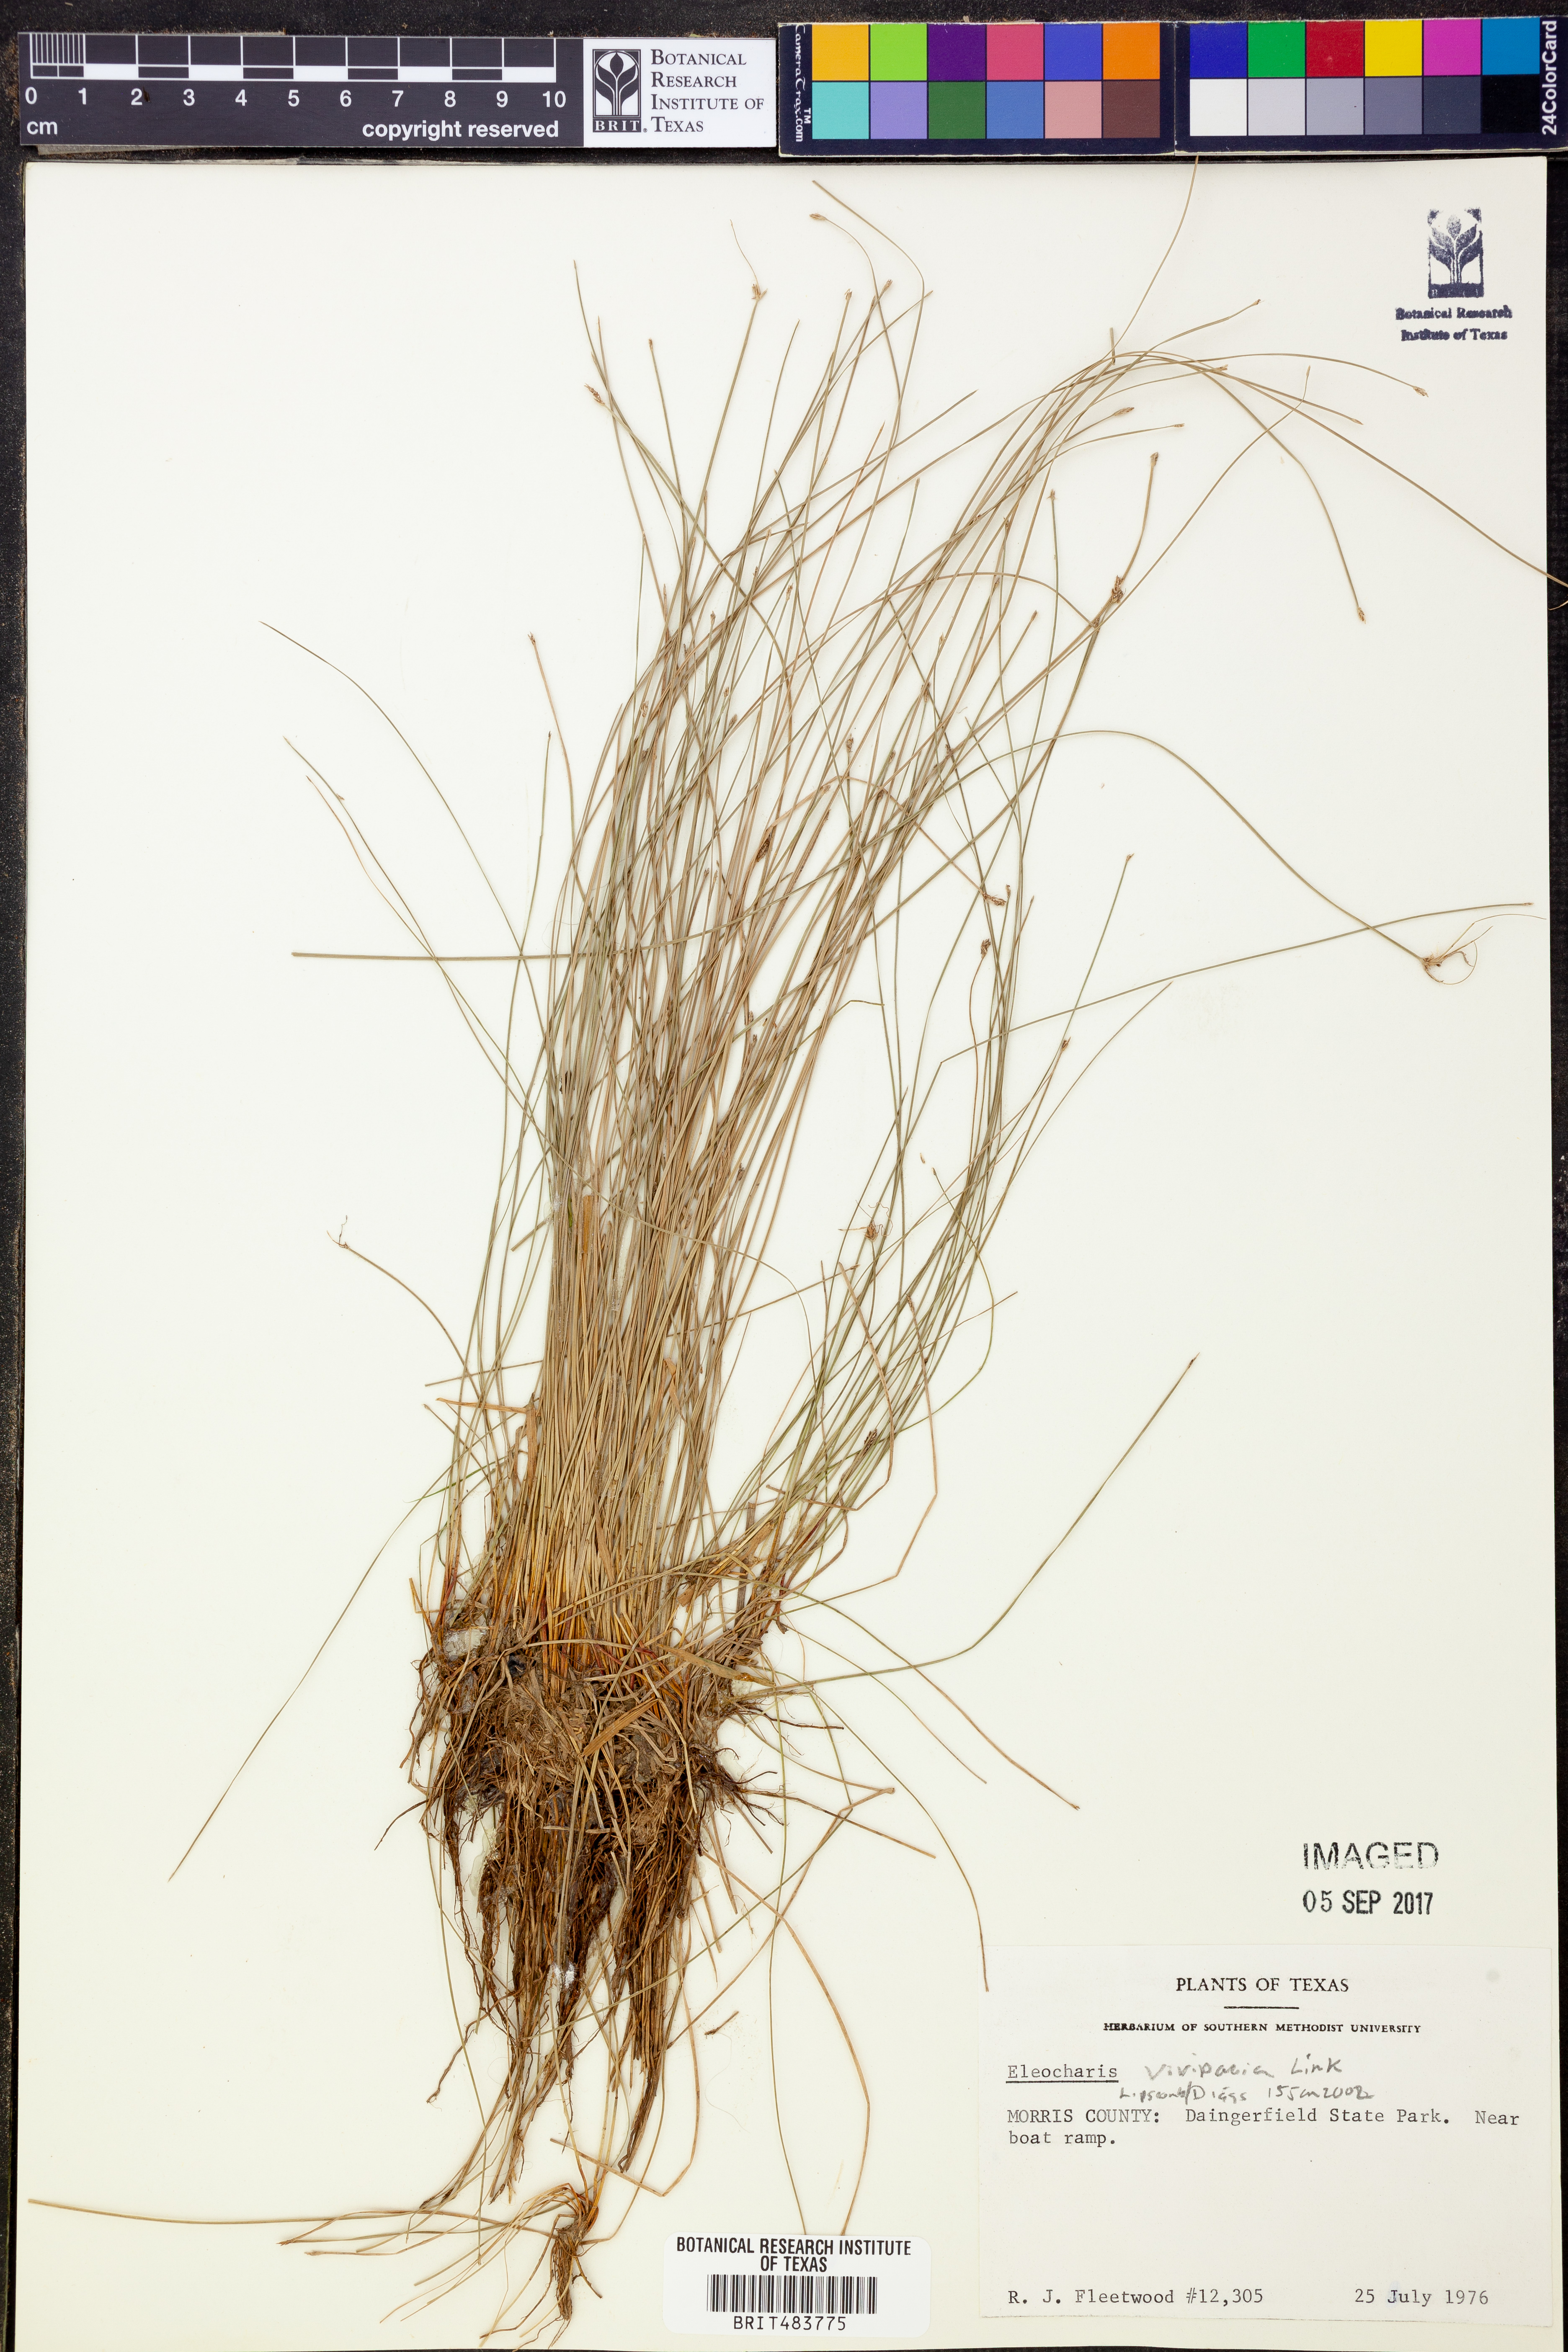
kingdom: Plantae
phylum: Tracheophyta
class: Liliopsida
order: Poales
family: Cyperaceae
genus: Eleocharis
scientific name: Eleocharis vivipara
